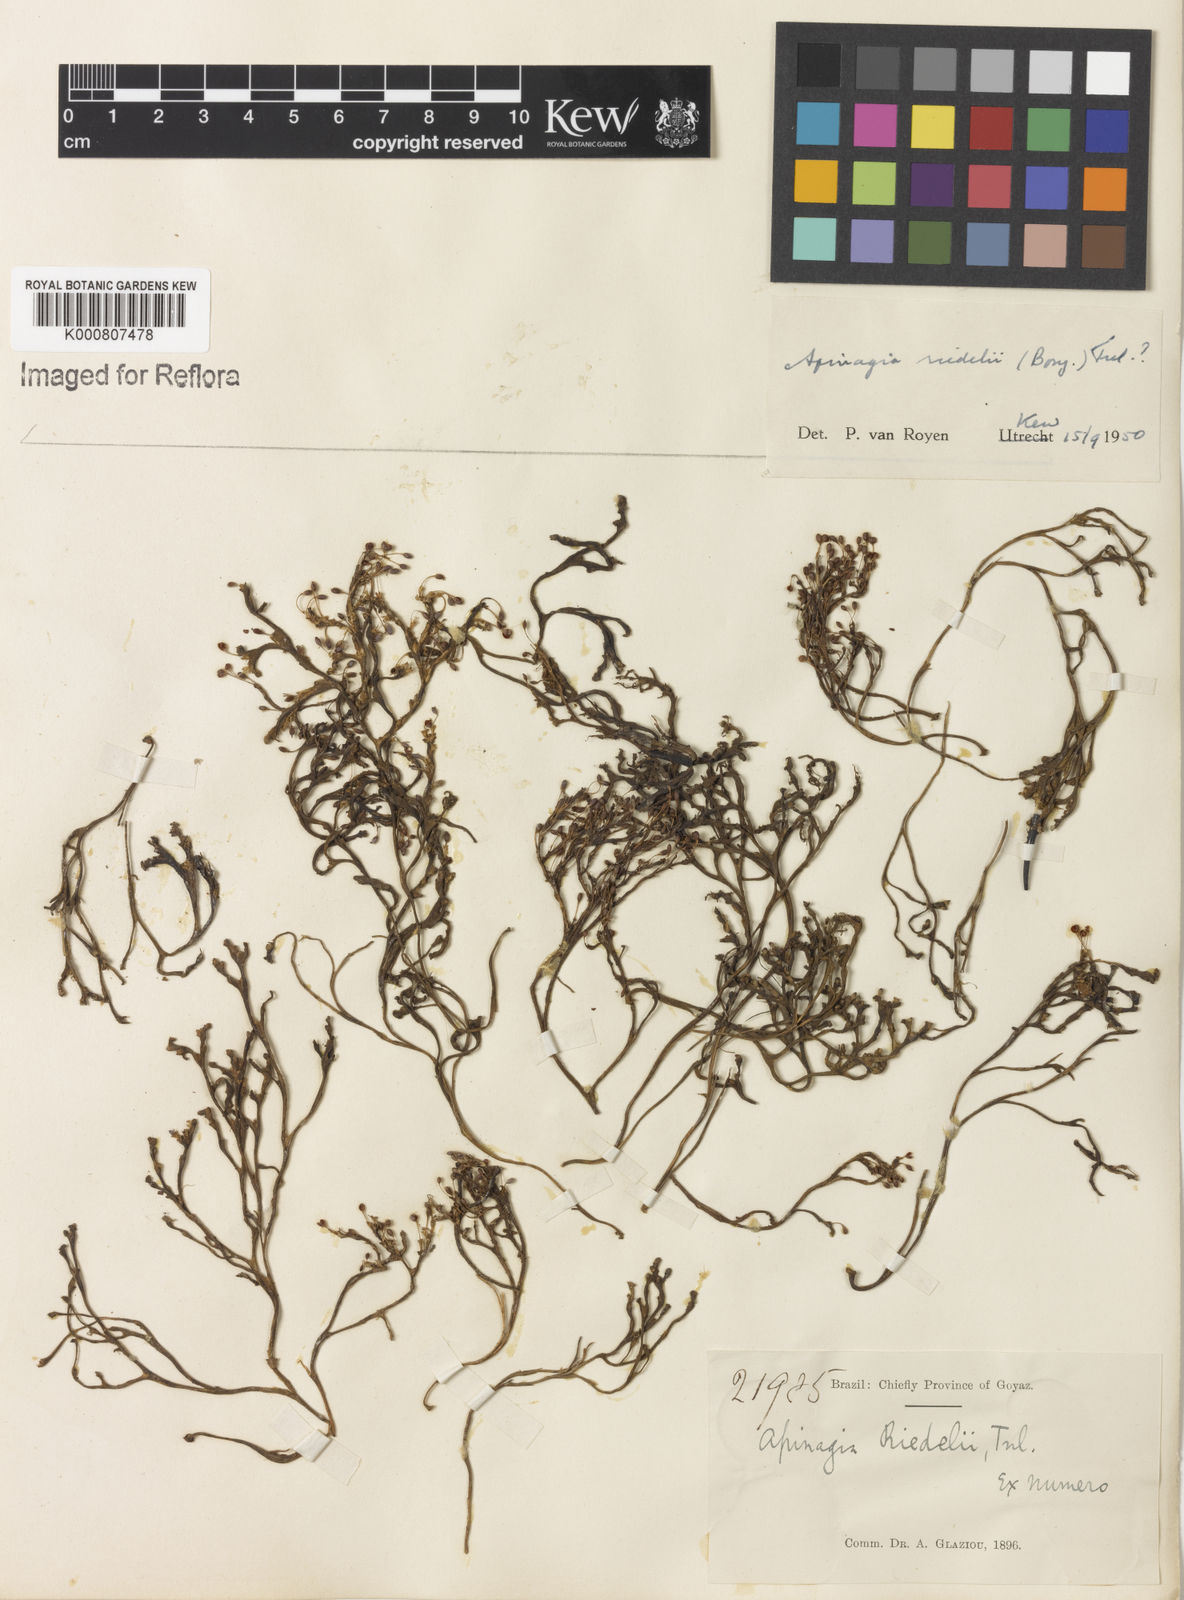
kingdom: Plantae
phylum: Tracheophyta
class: Magnoliopsida
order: Malpighiales
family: Podostemaceae
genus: Apinagia
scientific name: Apinagia riedelii
